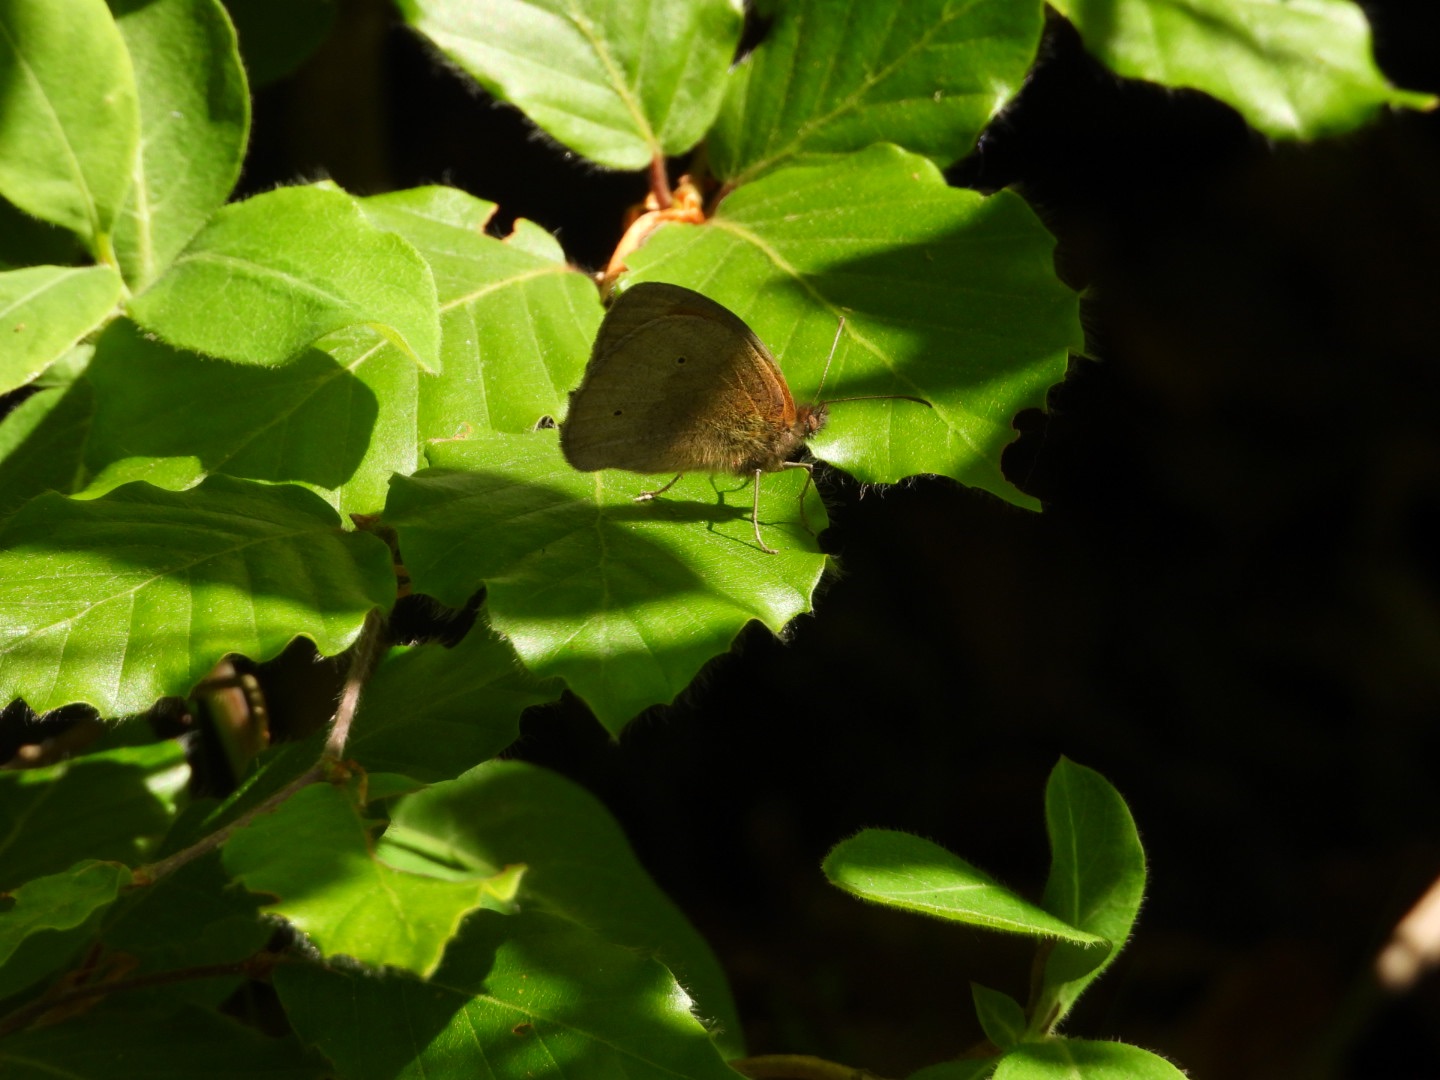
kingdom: Animalia
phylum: Arthropoda
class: Insecta
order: Lepidoptera
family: Nymphalidae
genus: Maniola
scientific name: Maniola jurtina
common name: Græsrandøje
